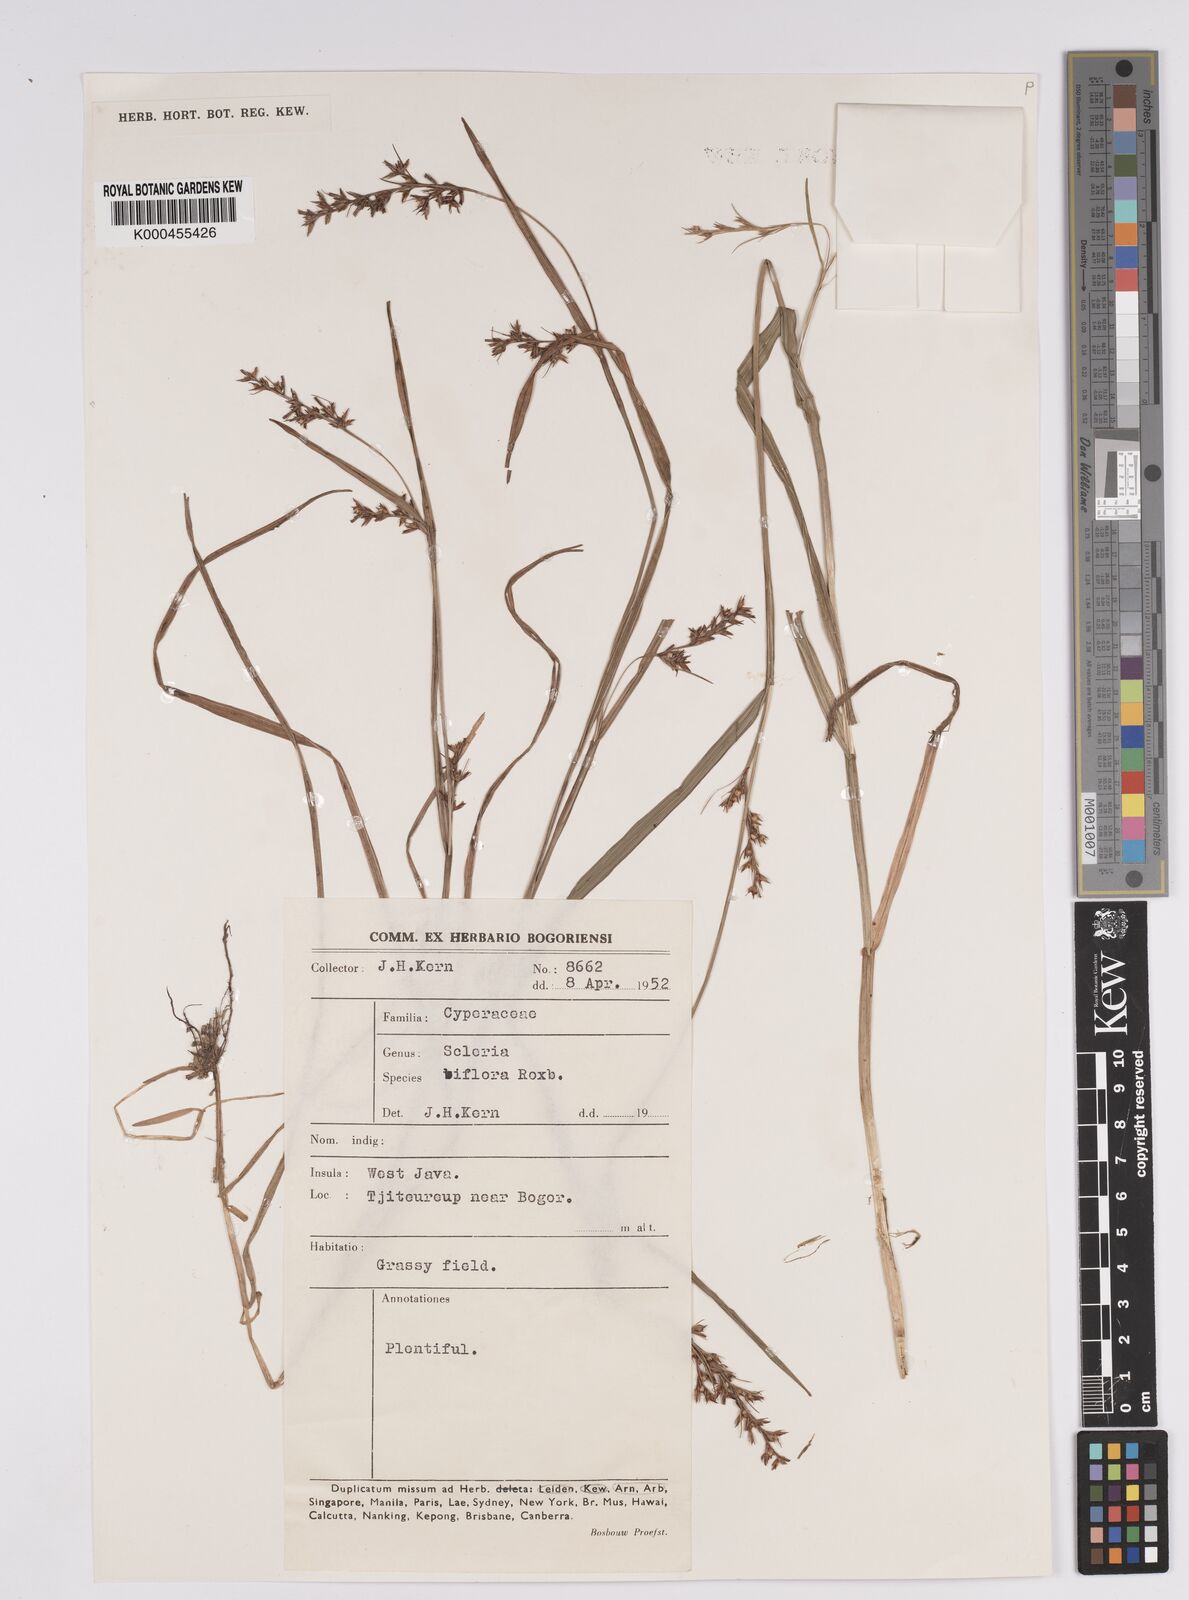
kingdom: Plantae
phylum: Tracheophyta
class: Liliopsida
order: Poales
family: Cyperaceae
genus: Scleria
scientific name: Scleria biflora
